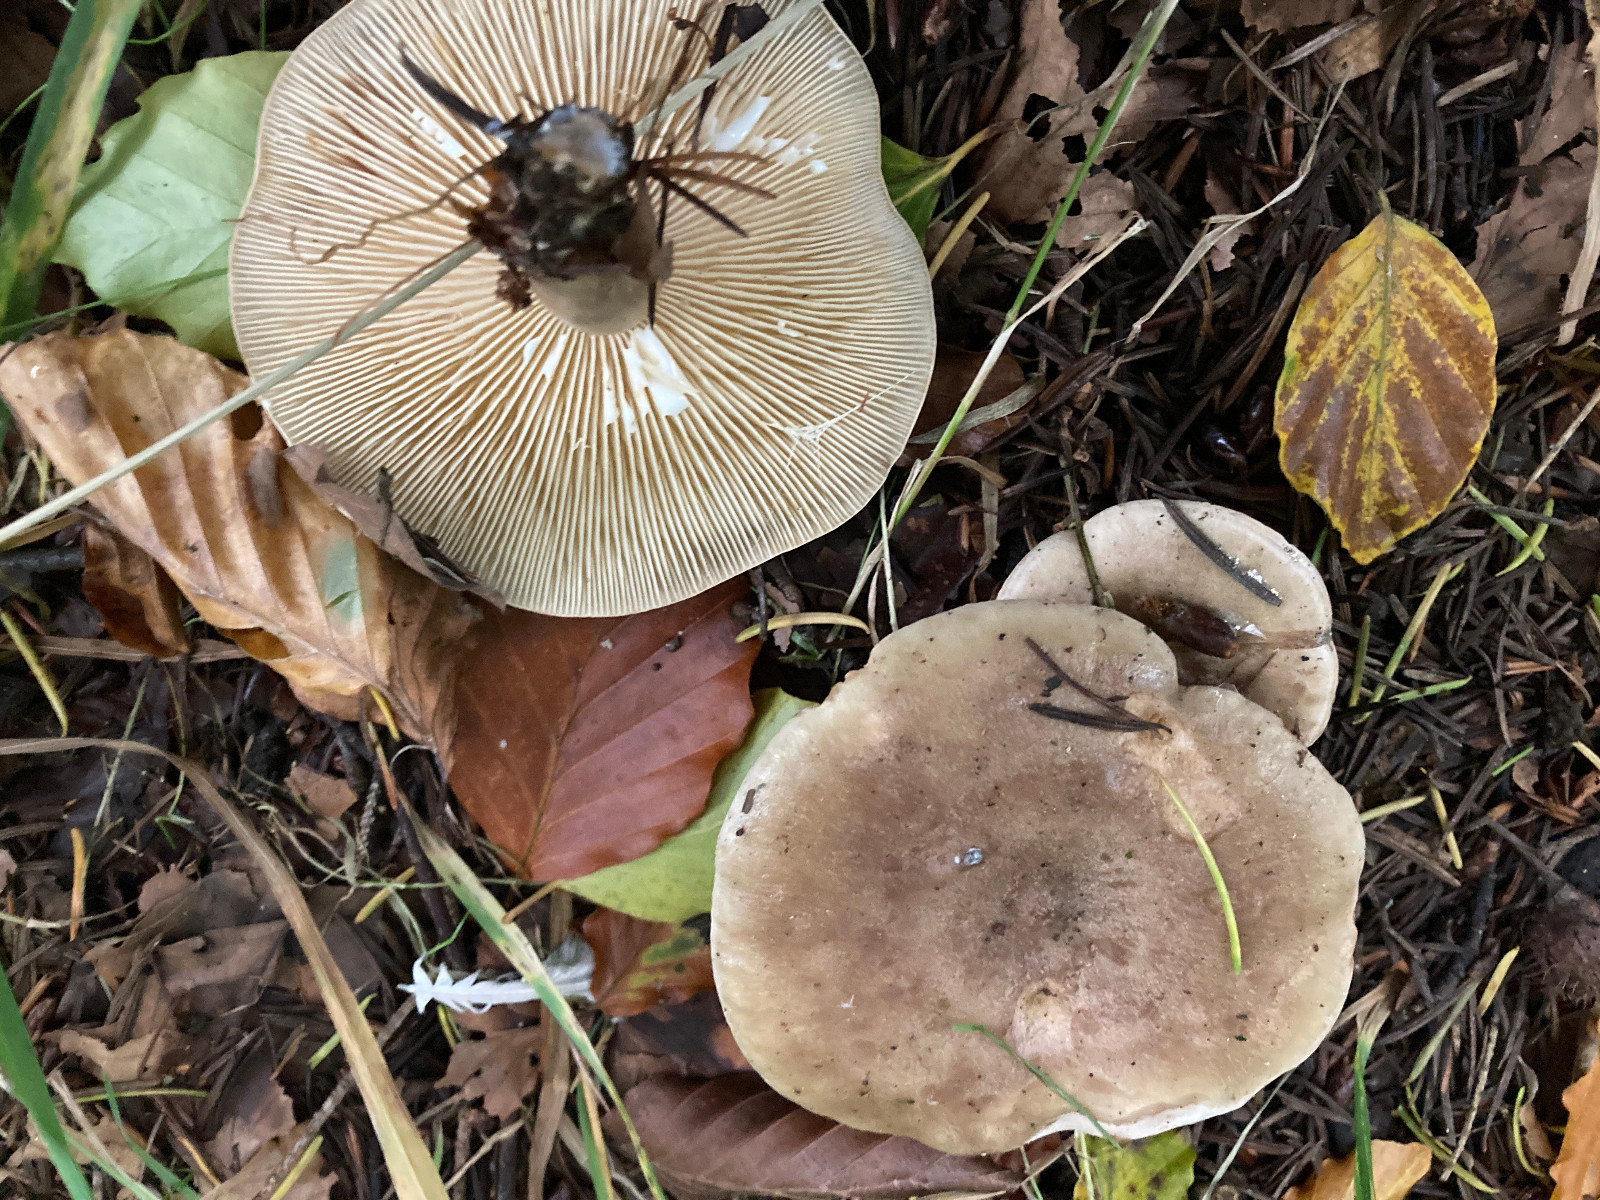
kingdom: Fungi
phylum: Basidiomycota
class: Agaricomycetes
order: Russulales
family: Russulaceae
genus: Lactarius
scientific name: Lactarius fluens
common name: lysrandet mælkehat
